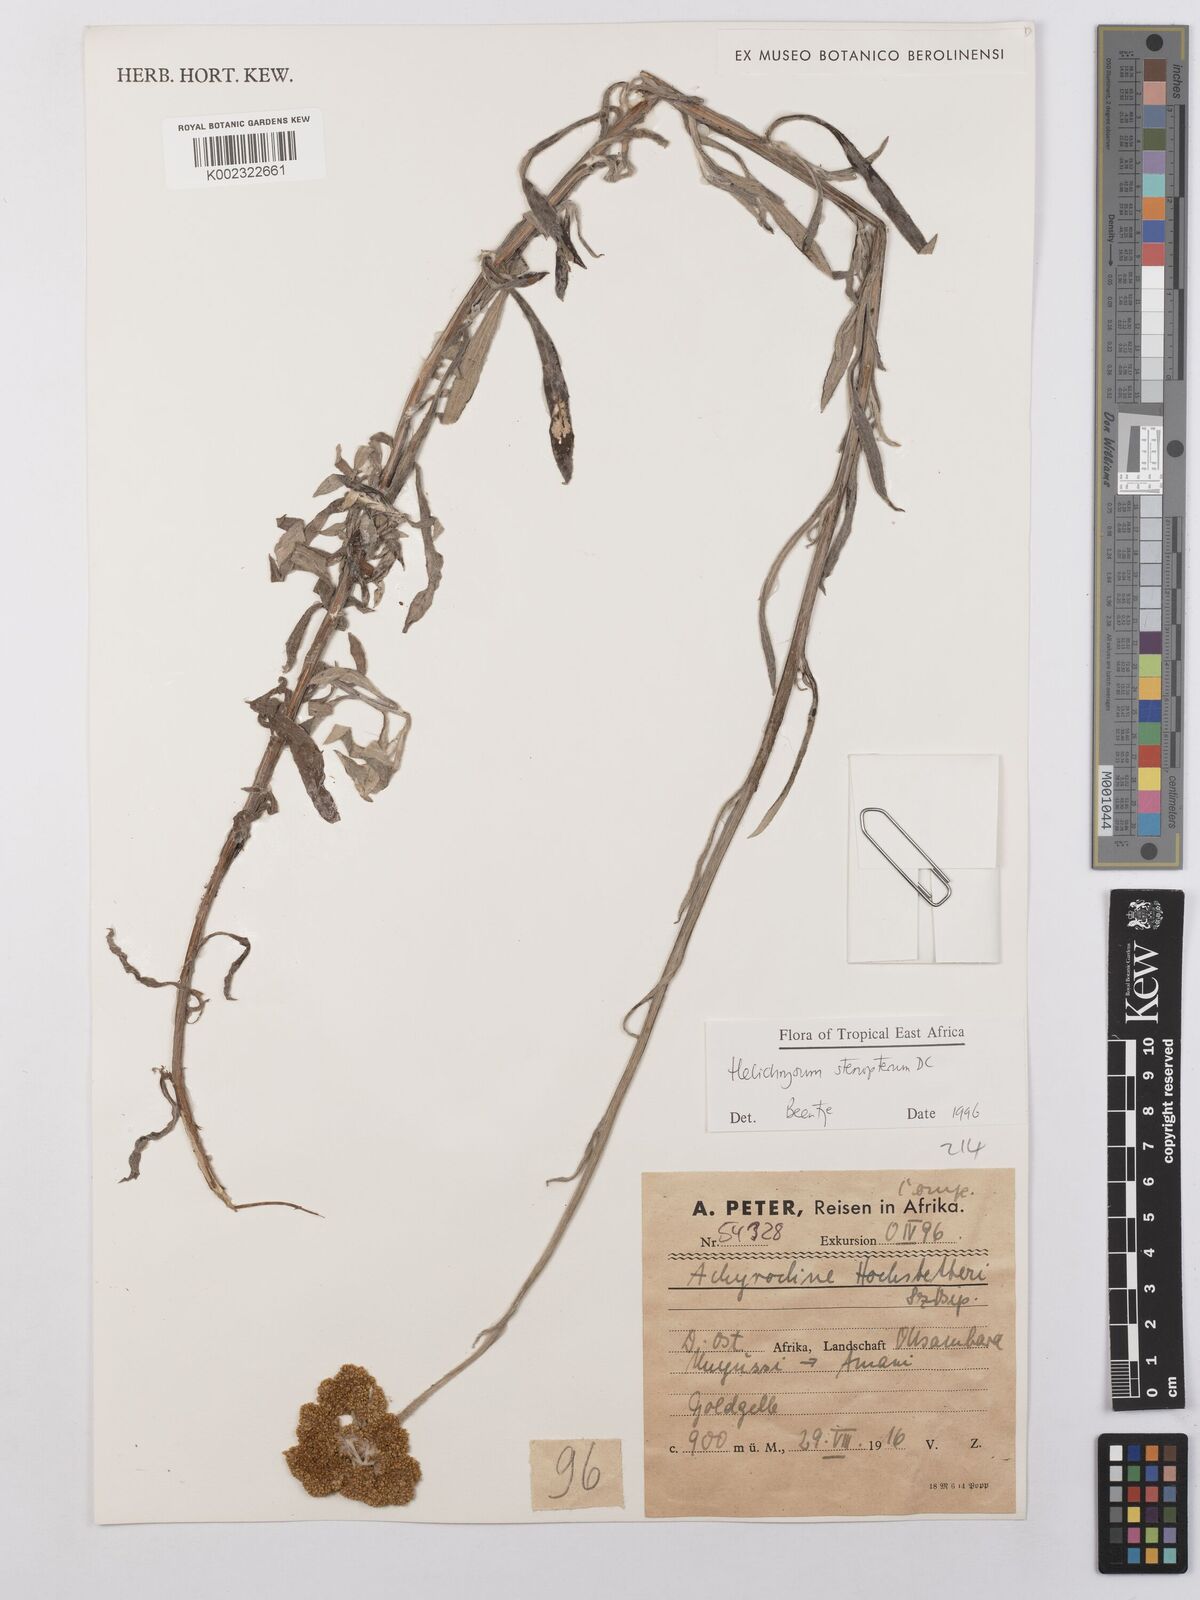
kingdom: Plantae
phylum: Tracheophyta
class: Magnoliopsida
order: Asterales
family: Asteraceae
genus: Helichrysum
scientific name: Helichrysum stenopterum
